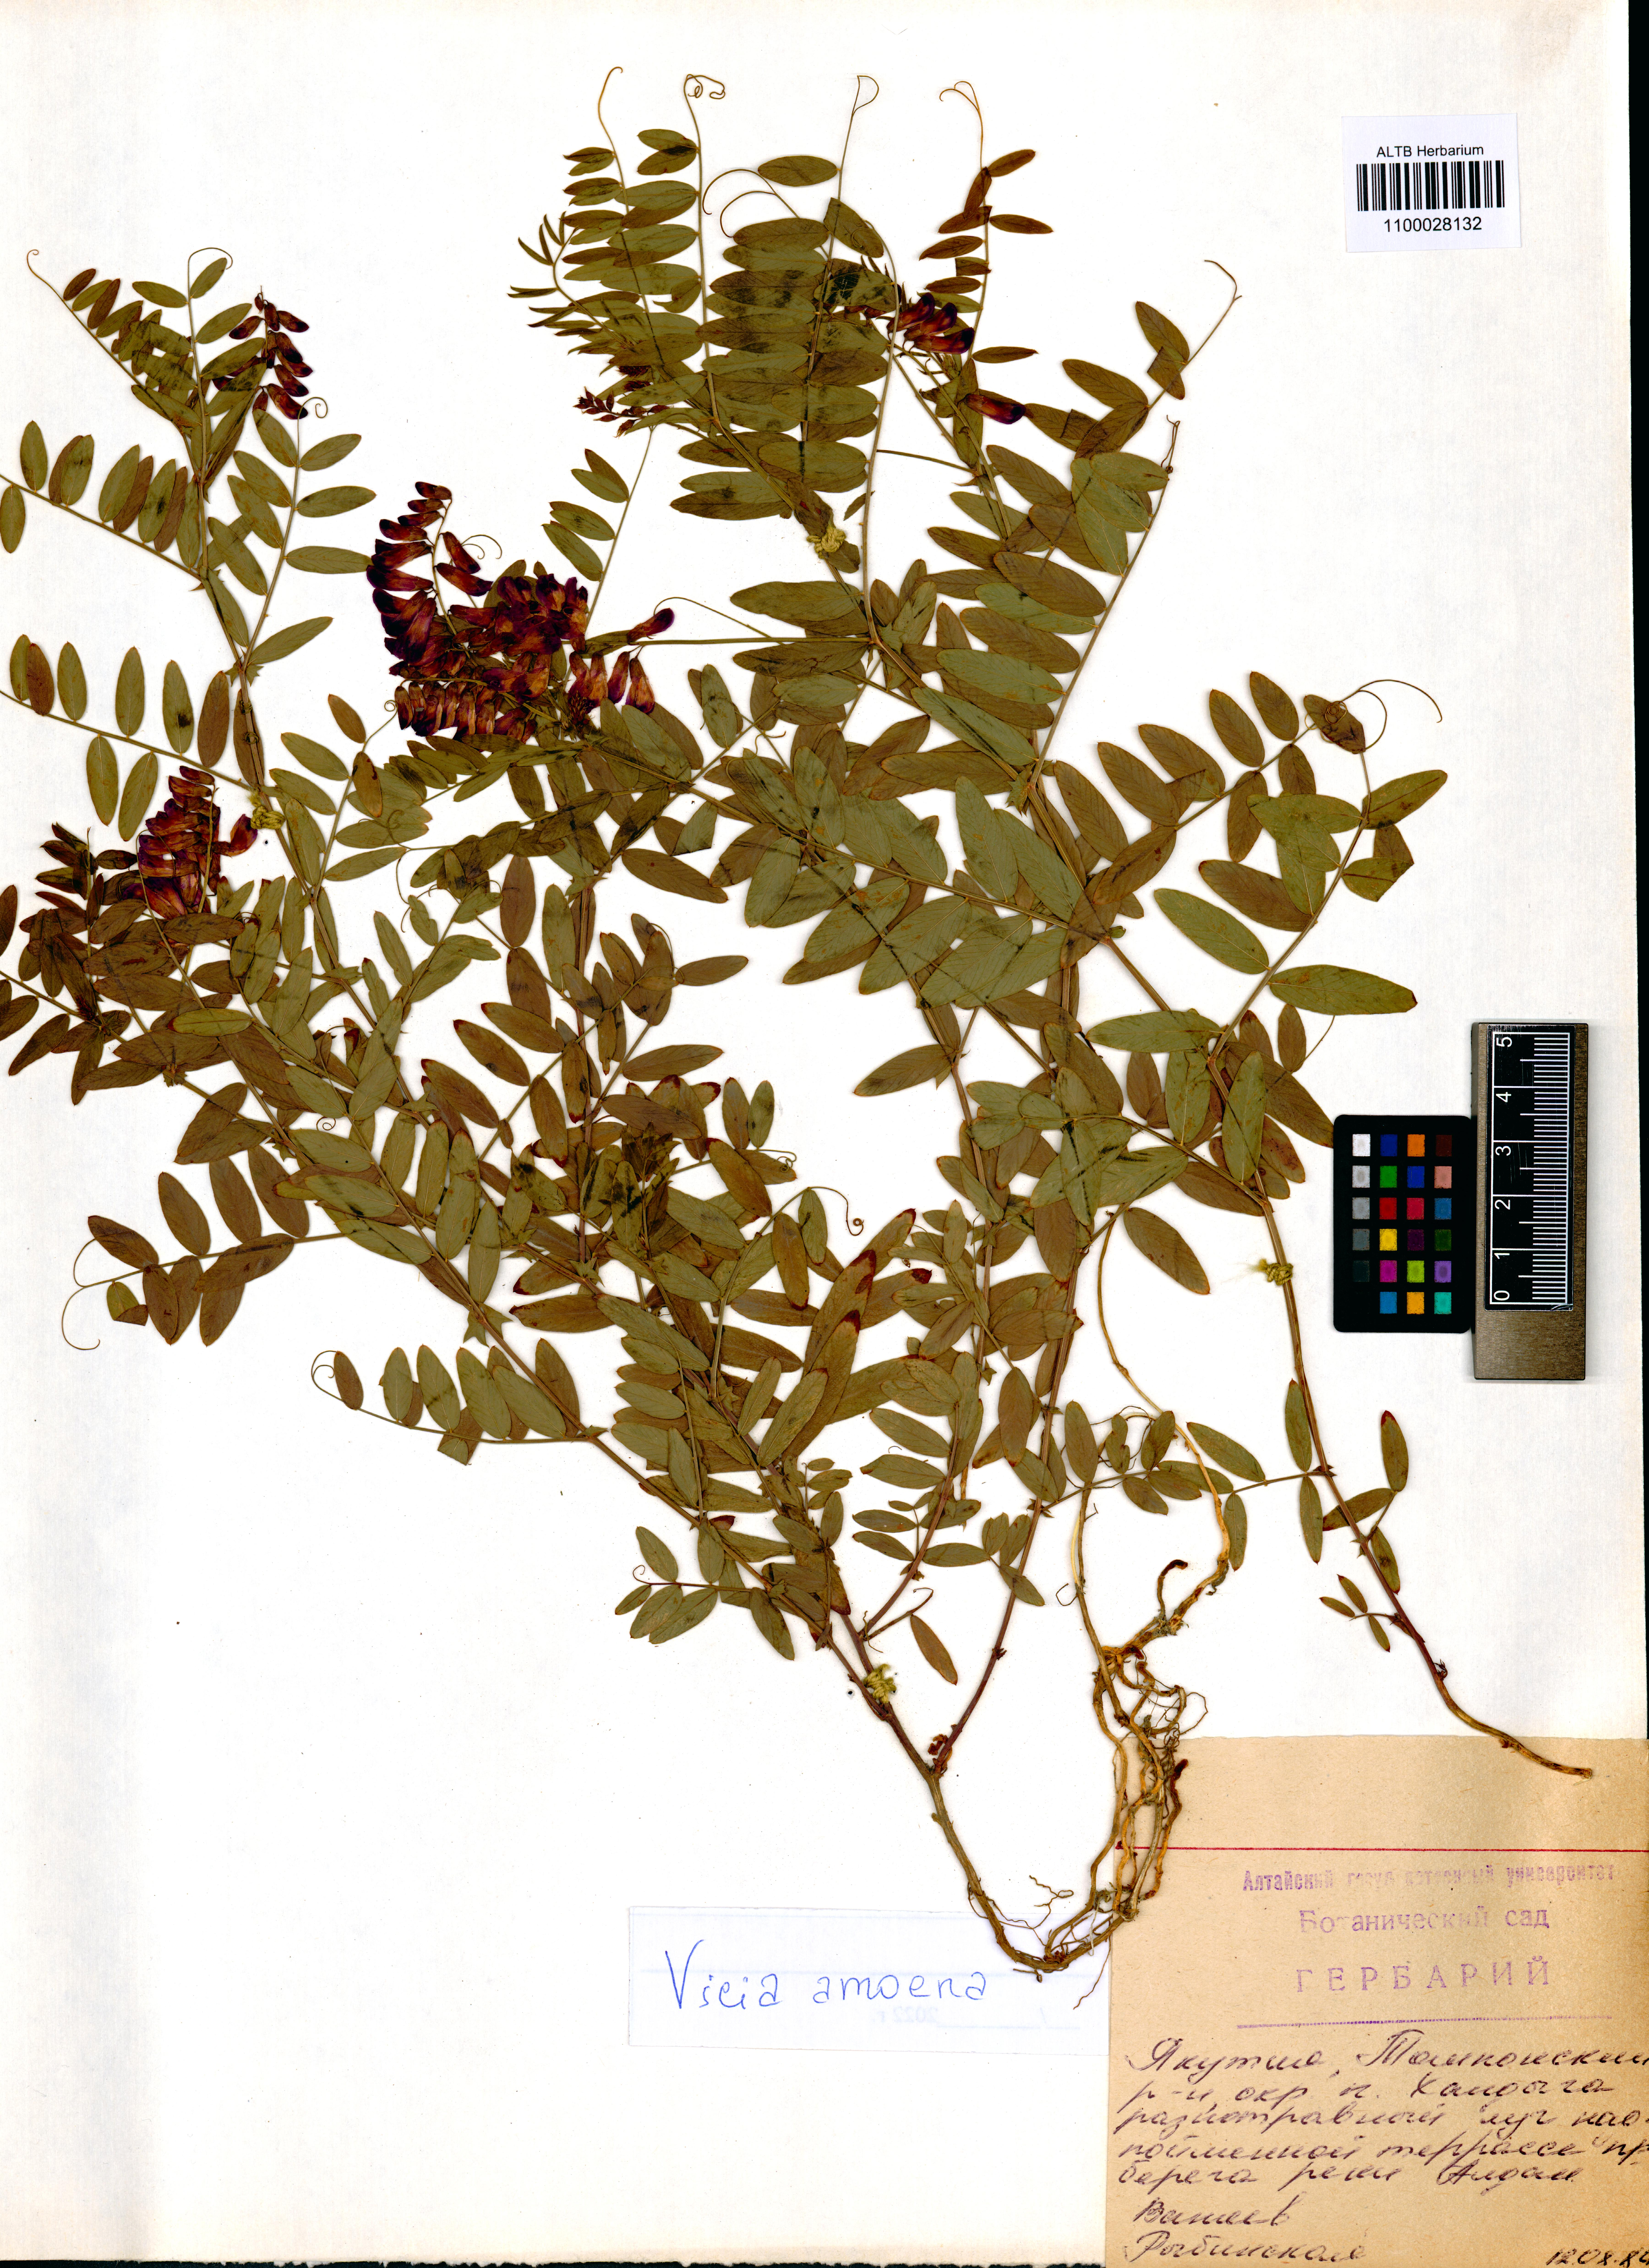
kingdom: Plantae
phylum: Tracheophyta
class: Magnoliopsida
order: Fabales
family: Fabaceae
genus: Vicia
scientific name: Vicia amoena
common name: Cheder ebs
